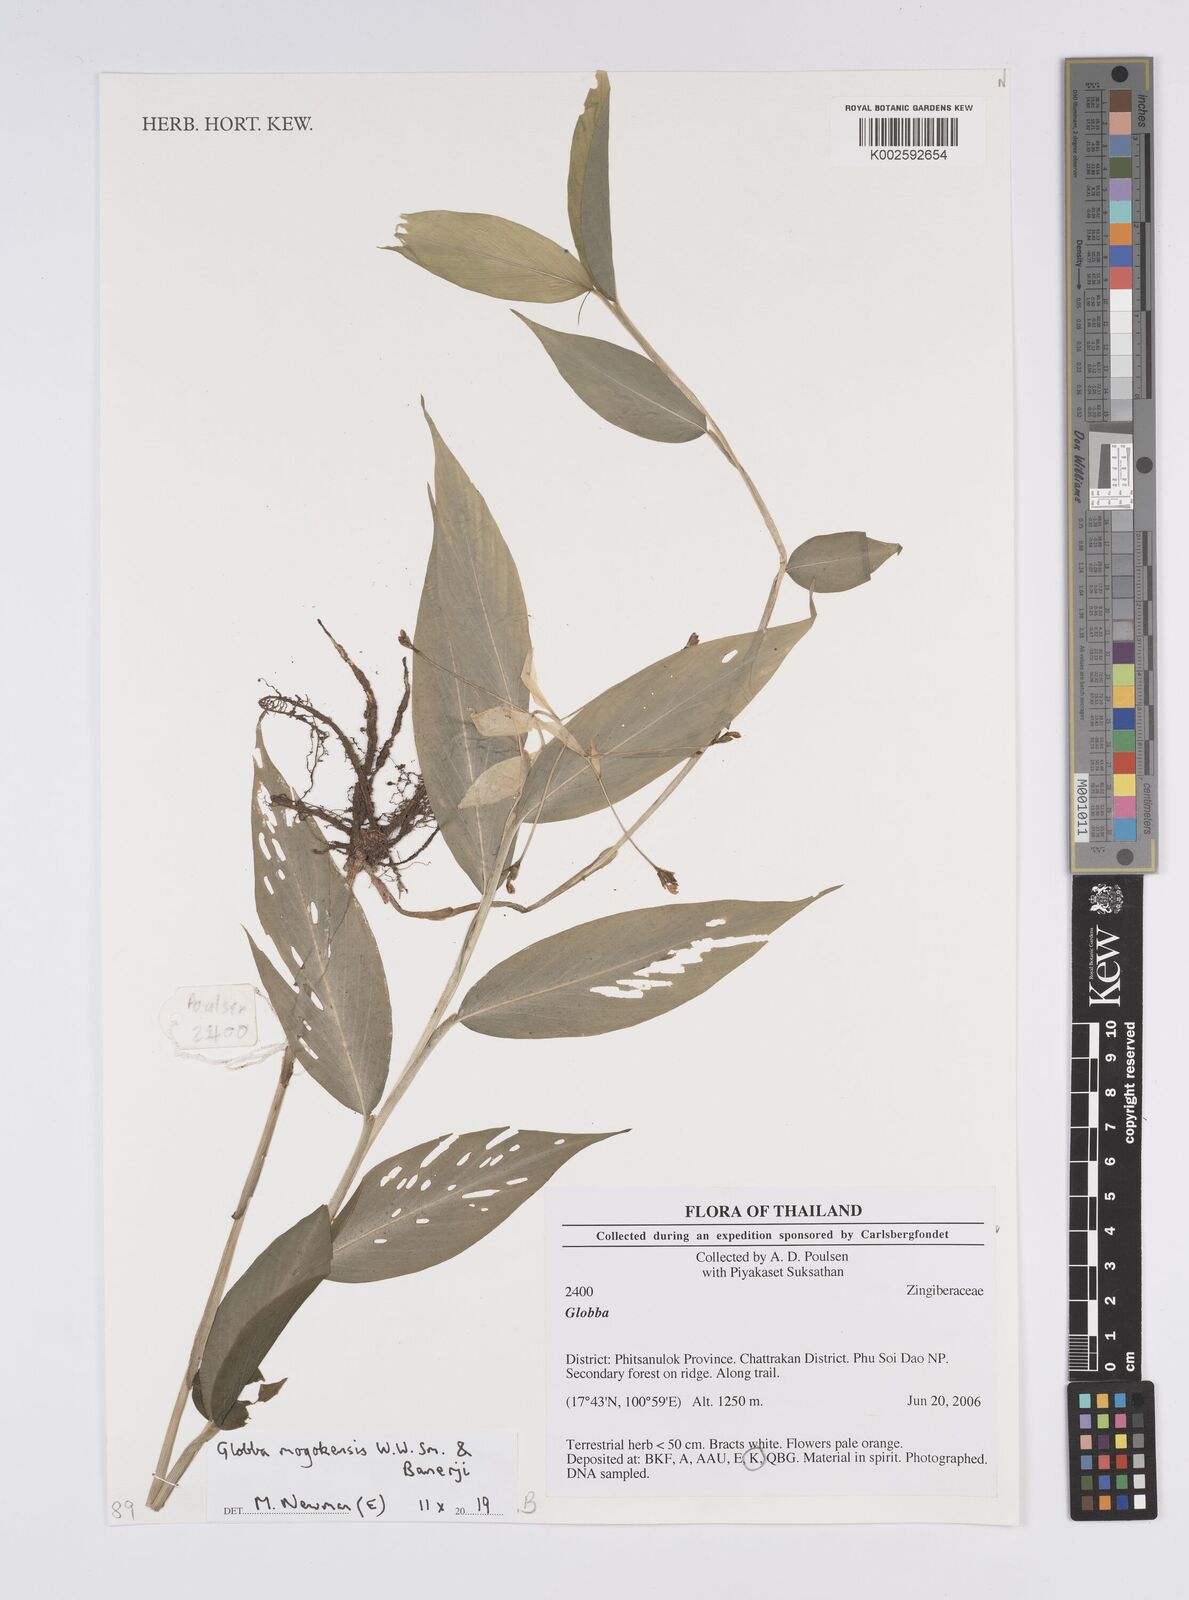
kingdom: Plantae
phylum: Tracheophyta
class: Liliopsida
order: Zingiberales
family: Zingiberaceae
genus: Globba
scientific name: Globba mogokensis
